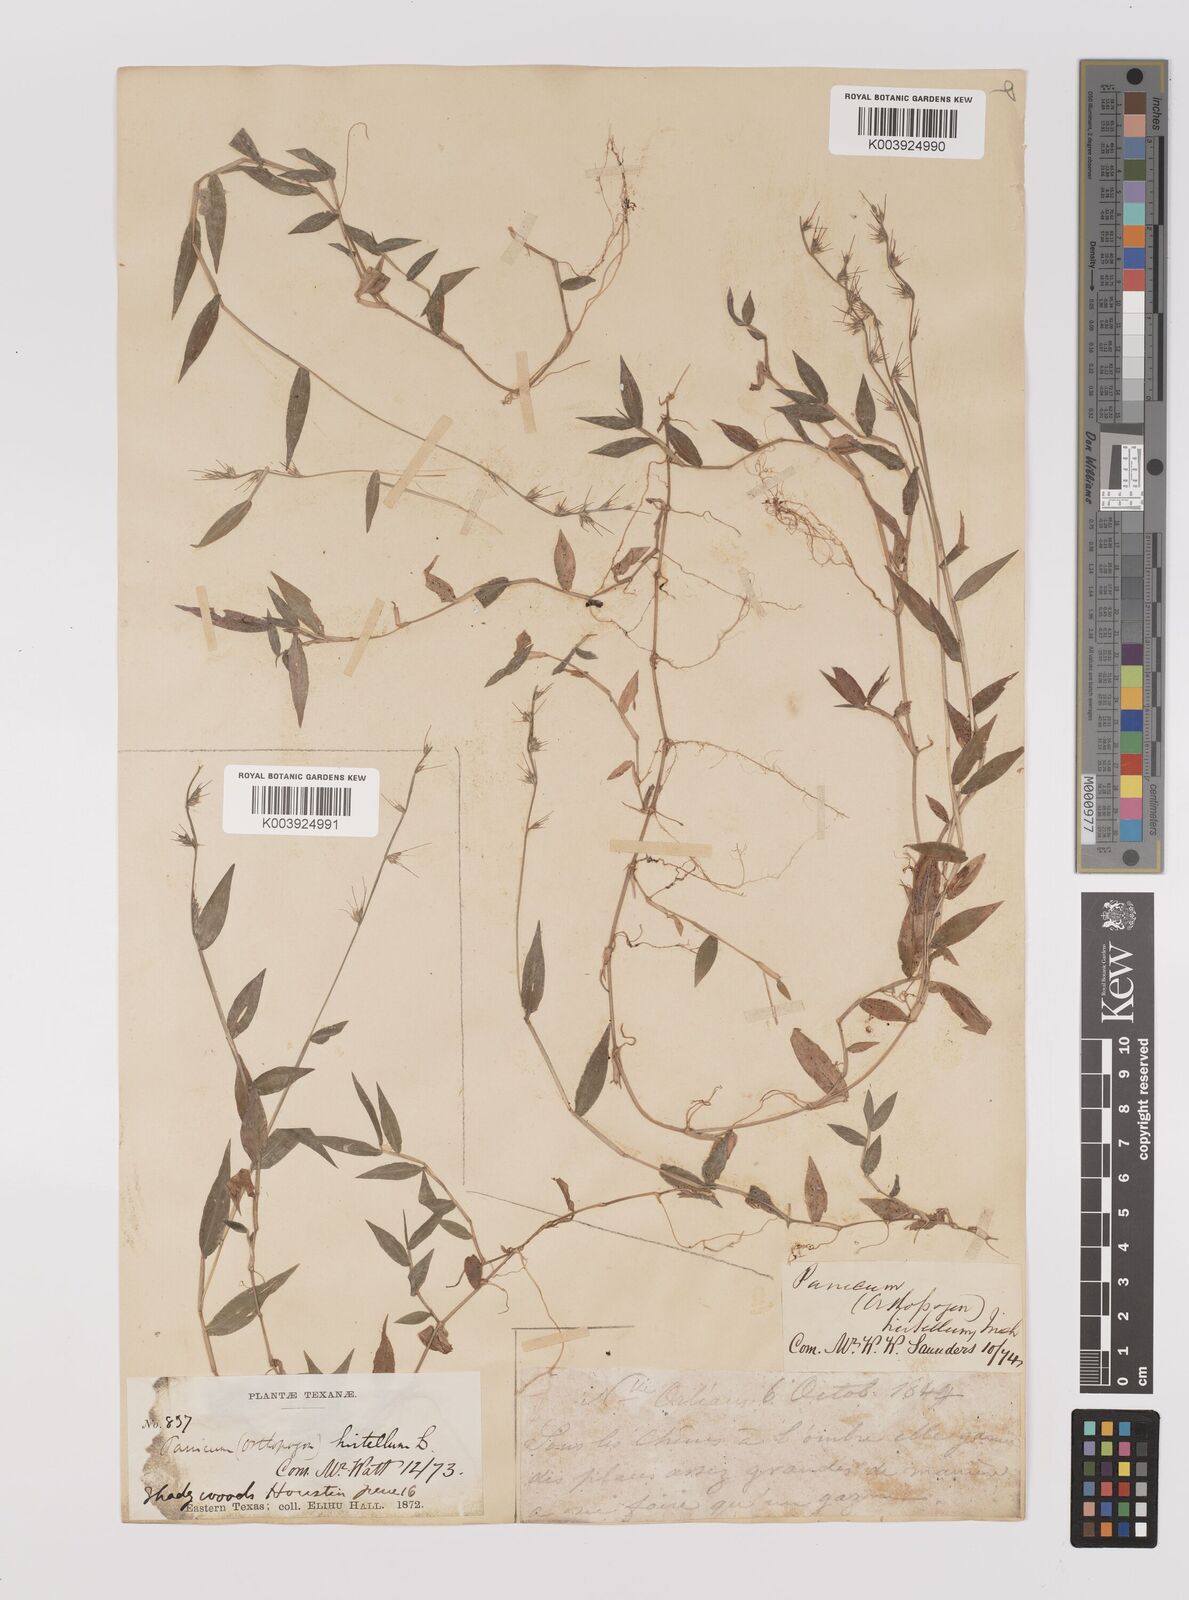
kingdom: Plantae
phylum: Tracheophyta
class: Liliopsida
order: Poales
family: Poaceae
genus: Oplismenus
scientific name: Oplismenus undulatifolius
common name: Wavyleaf basketgrass
